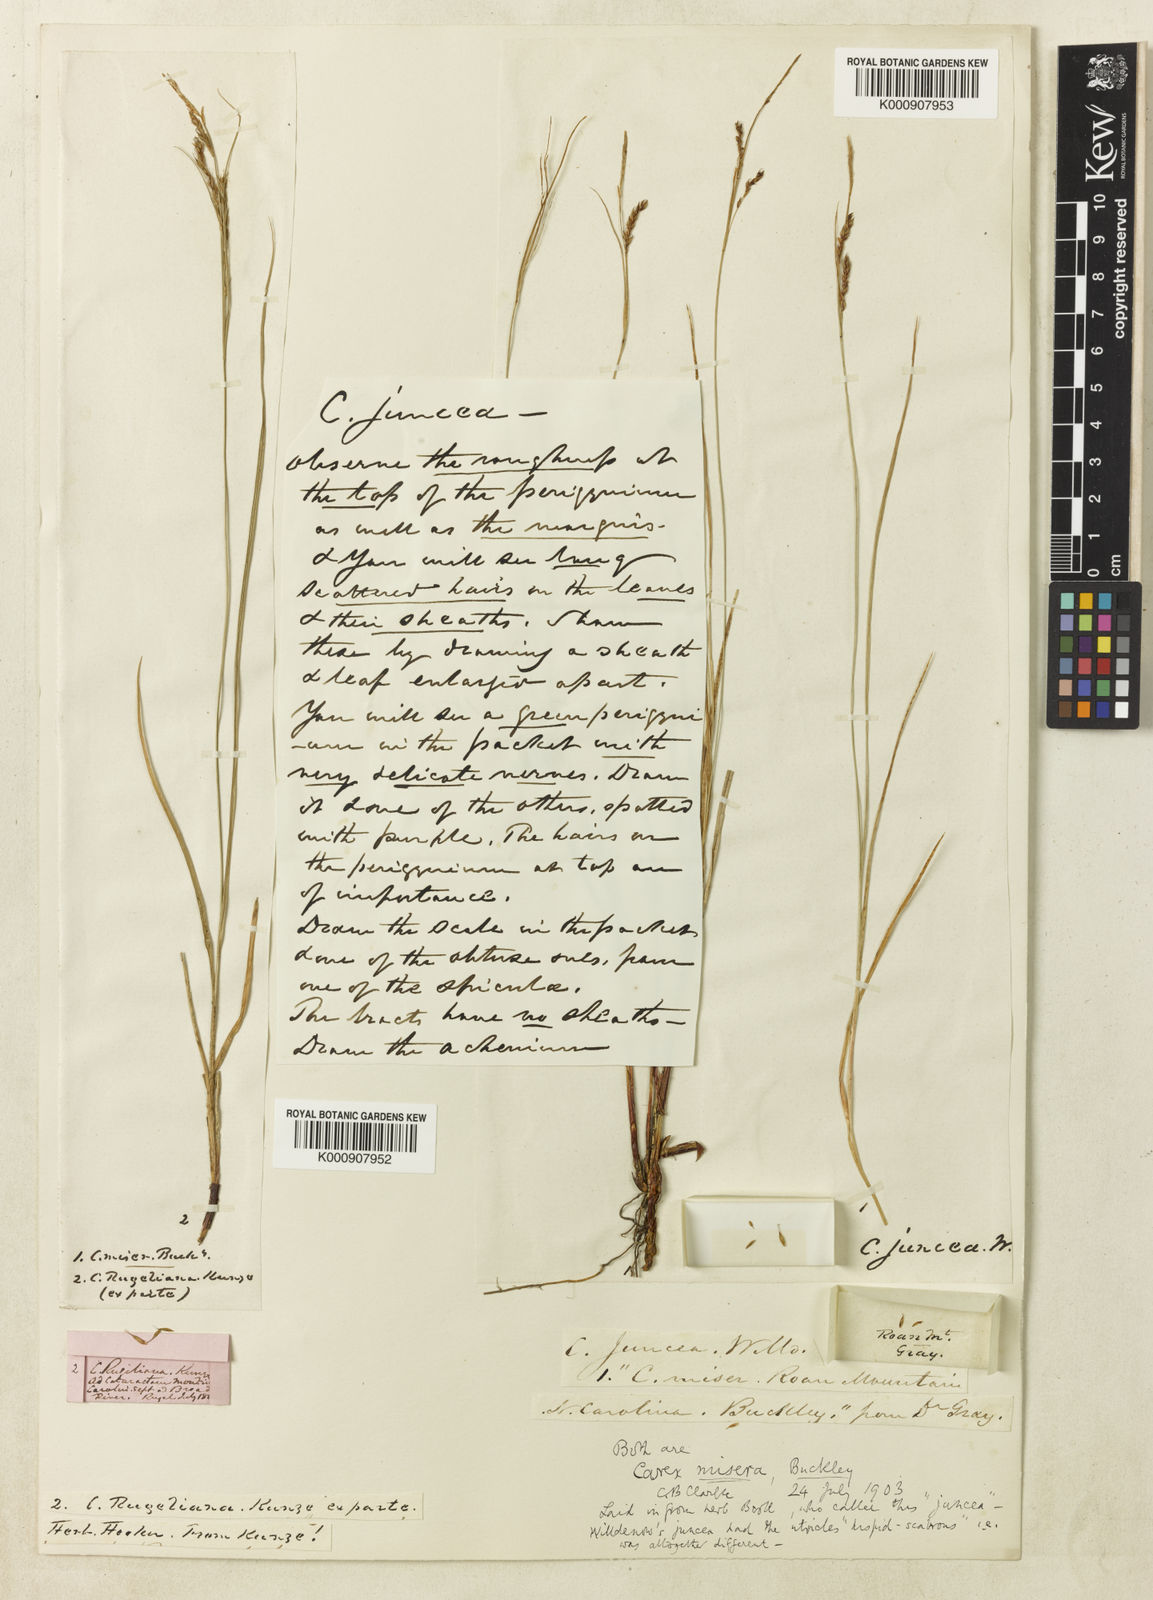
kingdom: Plantae
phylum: Tracheophyta
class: Liliopsida
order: Poales
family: Cyperaceae
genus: Carex
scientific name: Carex misera
